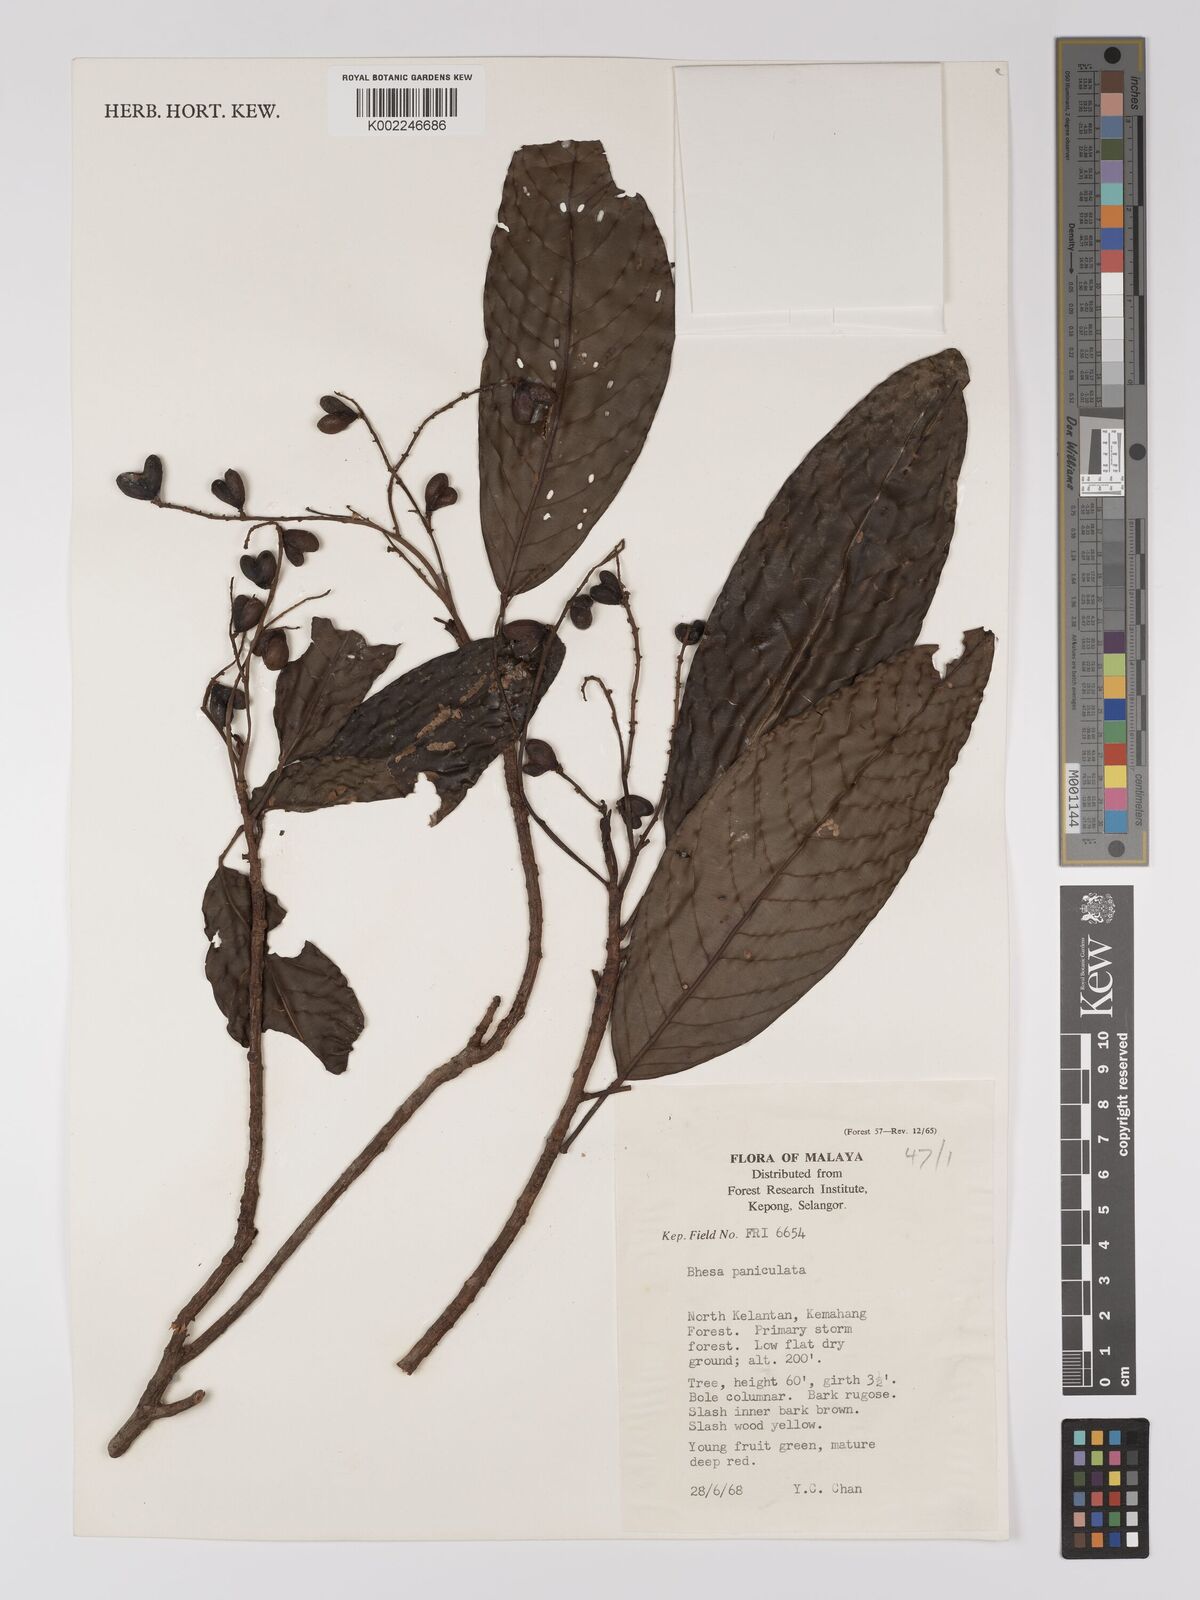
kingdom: Plantae
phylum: Tracheophyta
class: Magnoliopsida
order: Malpighiales
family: Centroplacaceae
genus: Bhesa
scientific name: Bhesa paniculata
